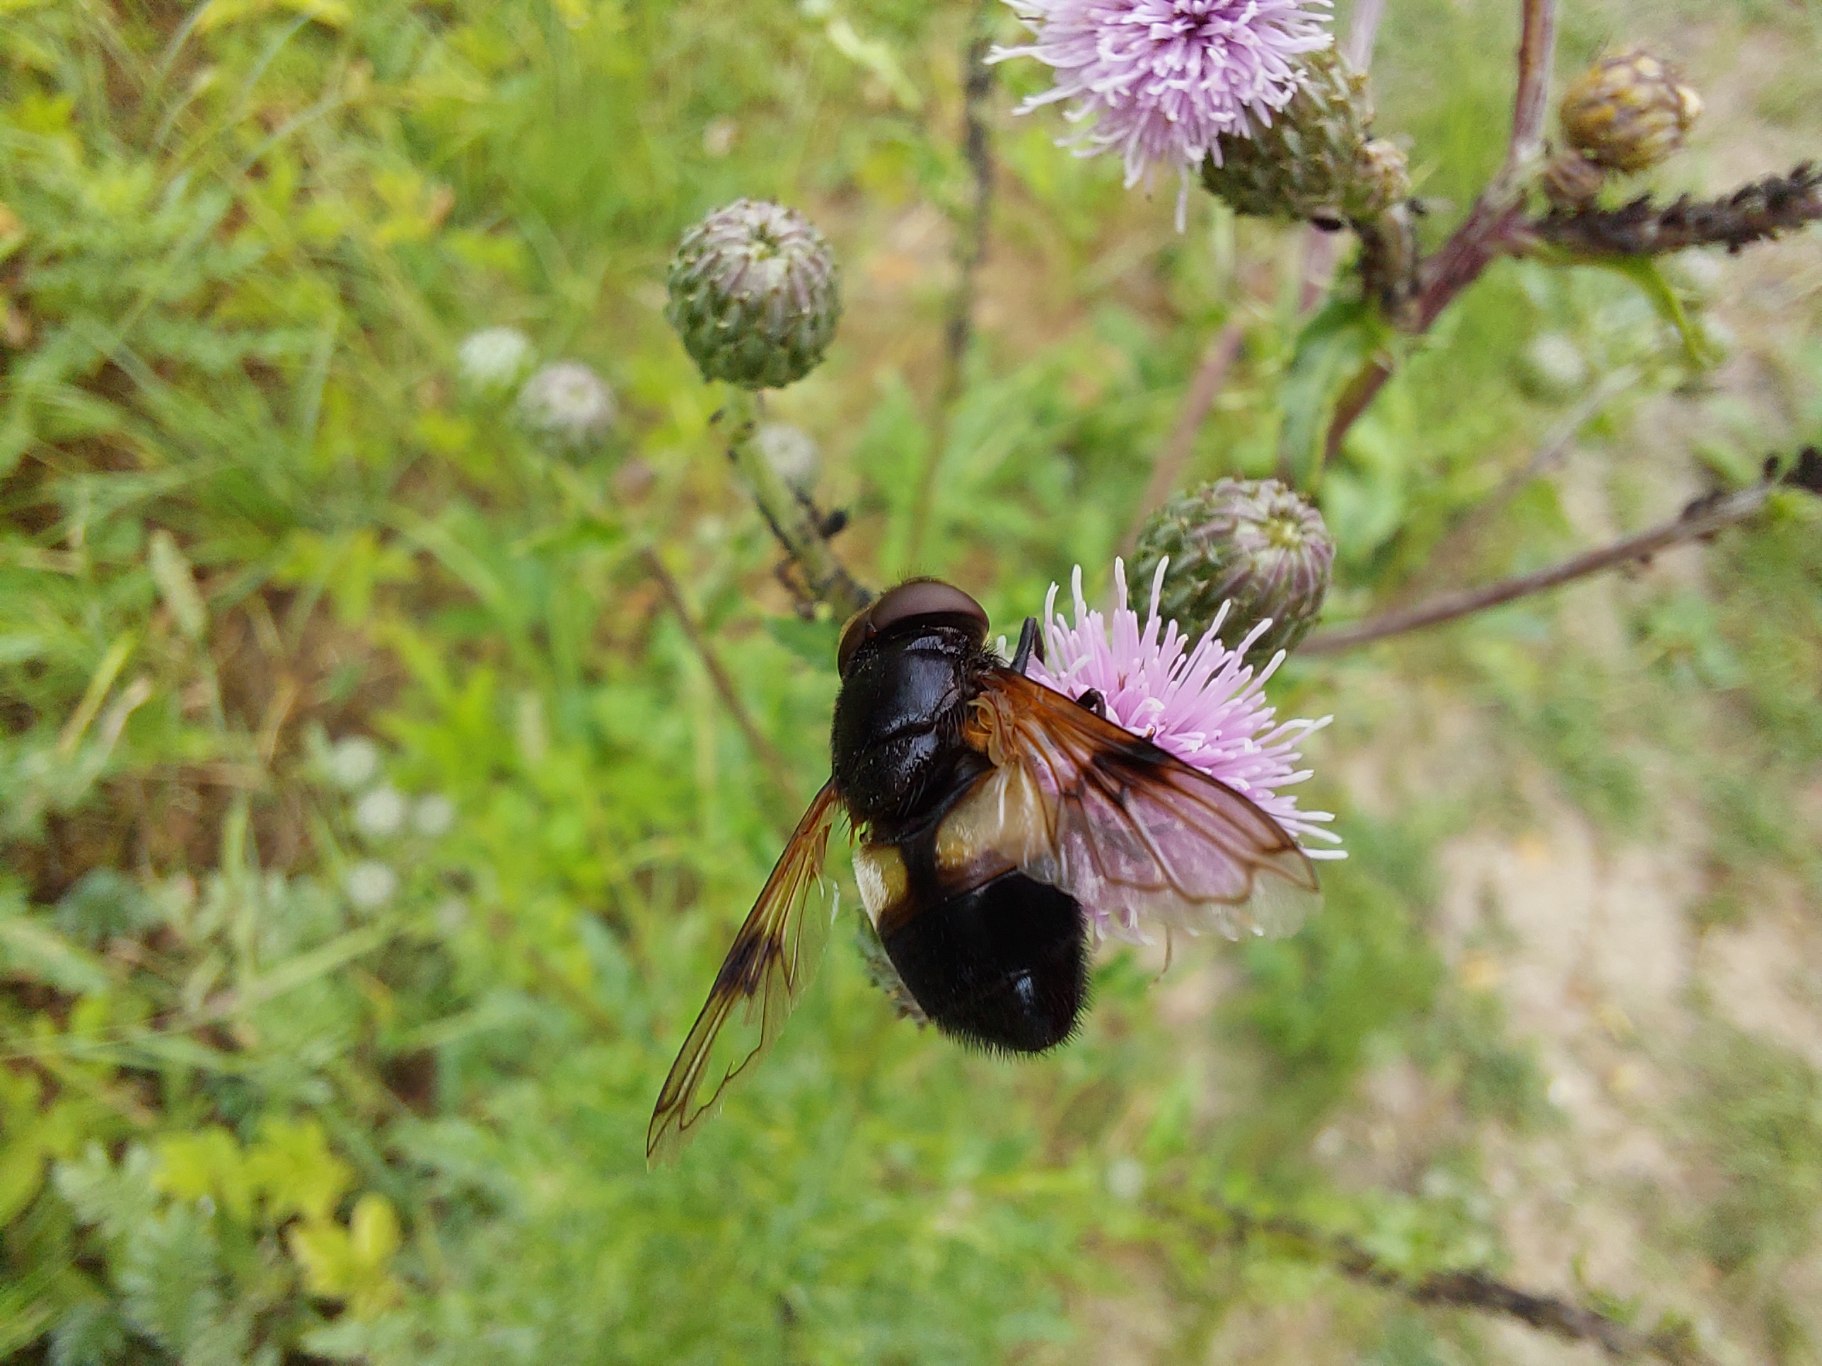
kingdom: Animalia
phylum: Arthropoda
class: Insecta
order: Diptera
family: Syrphidae
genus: Volucella
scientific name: Volucella pellucens
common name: Hvidbåndet humlesvirreflue
